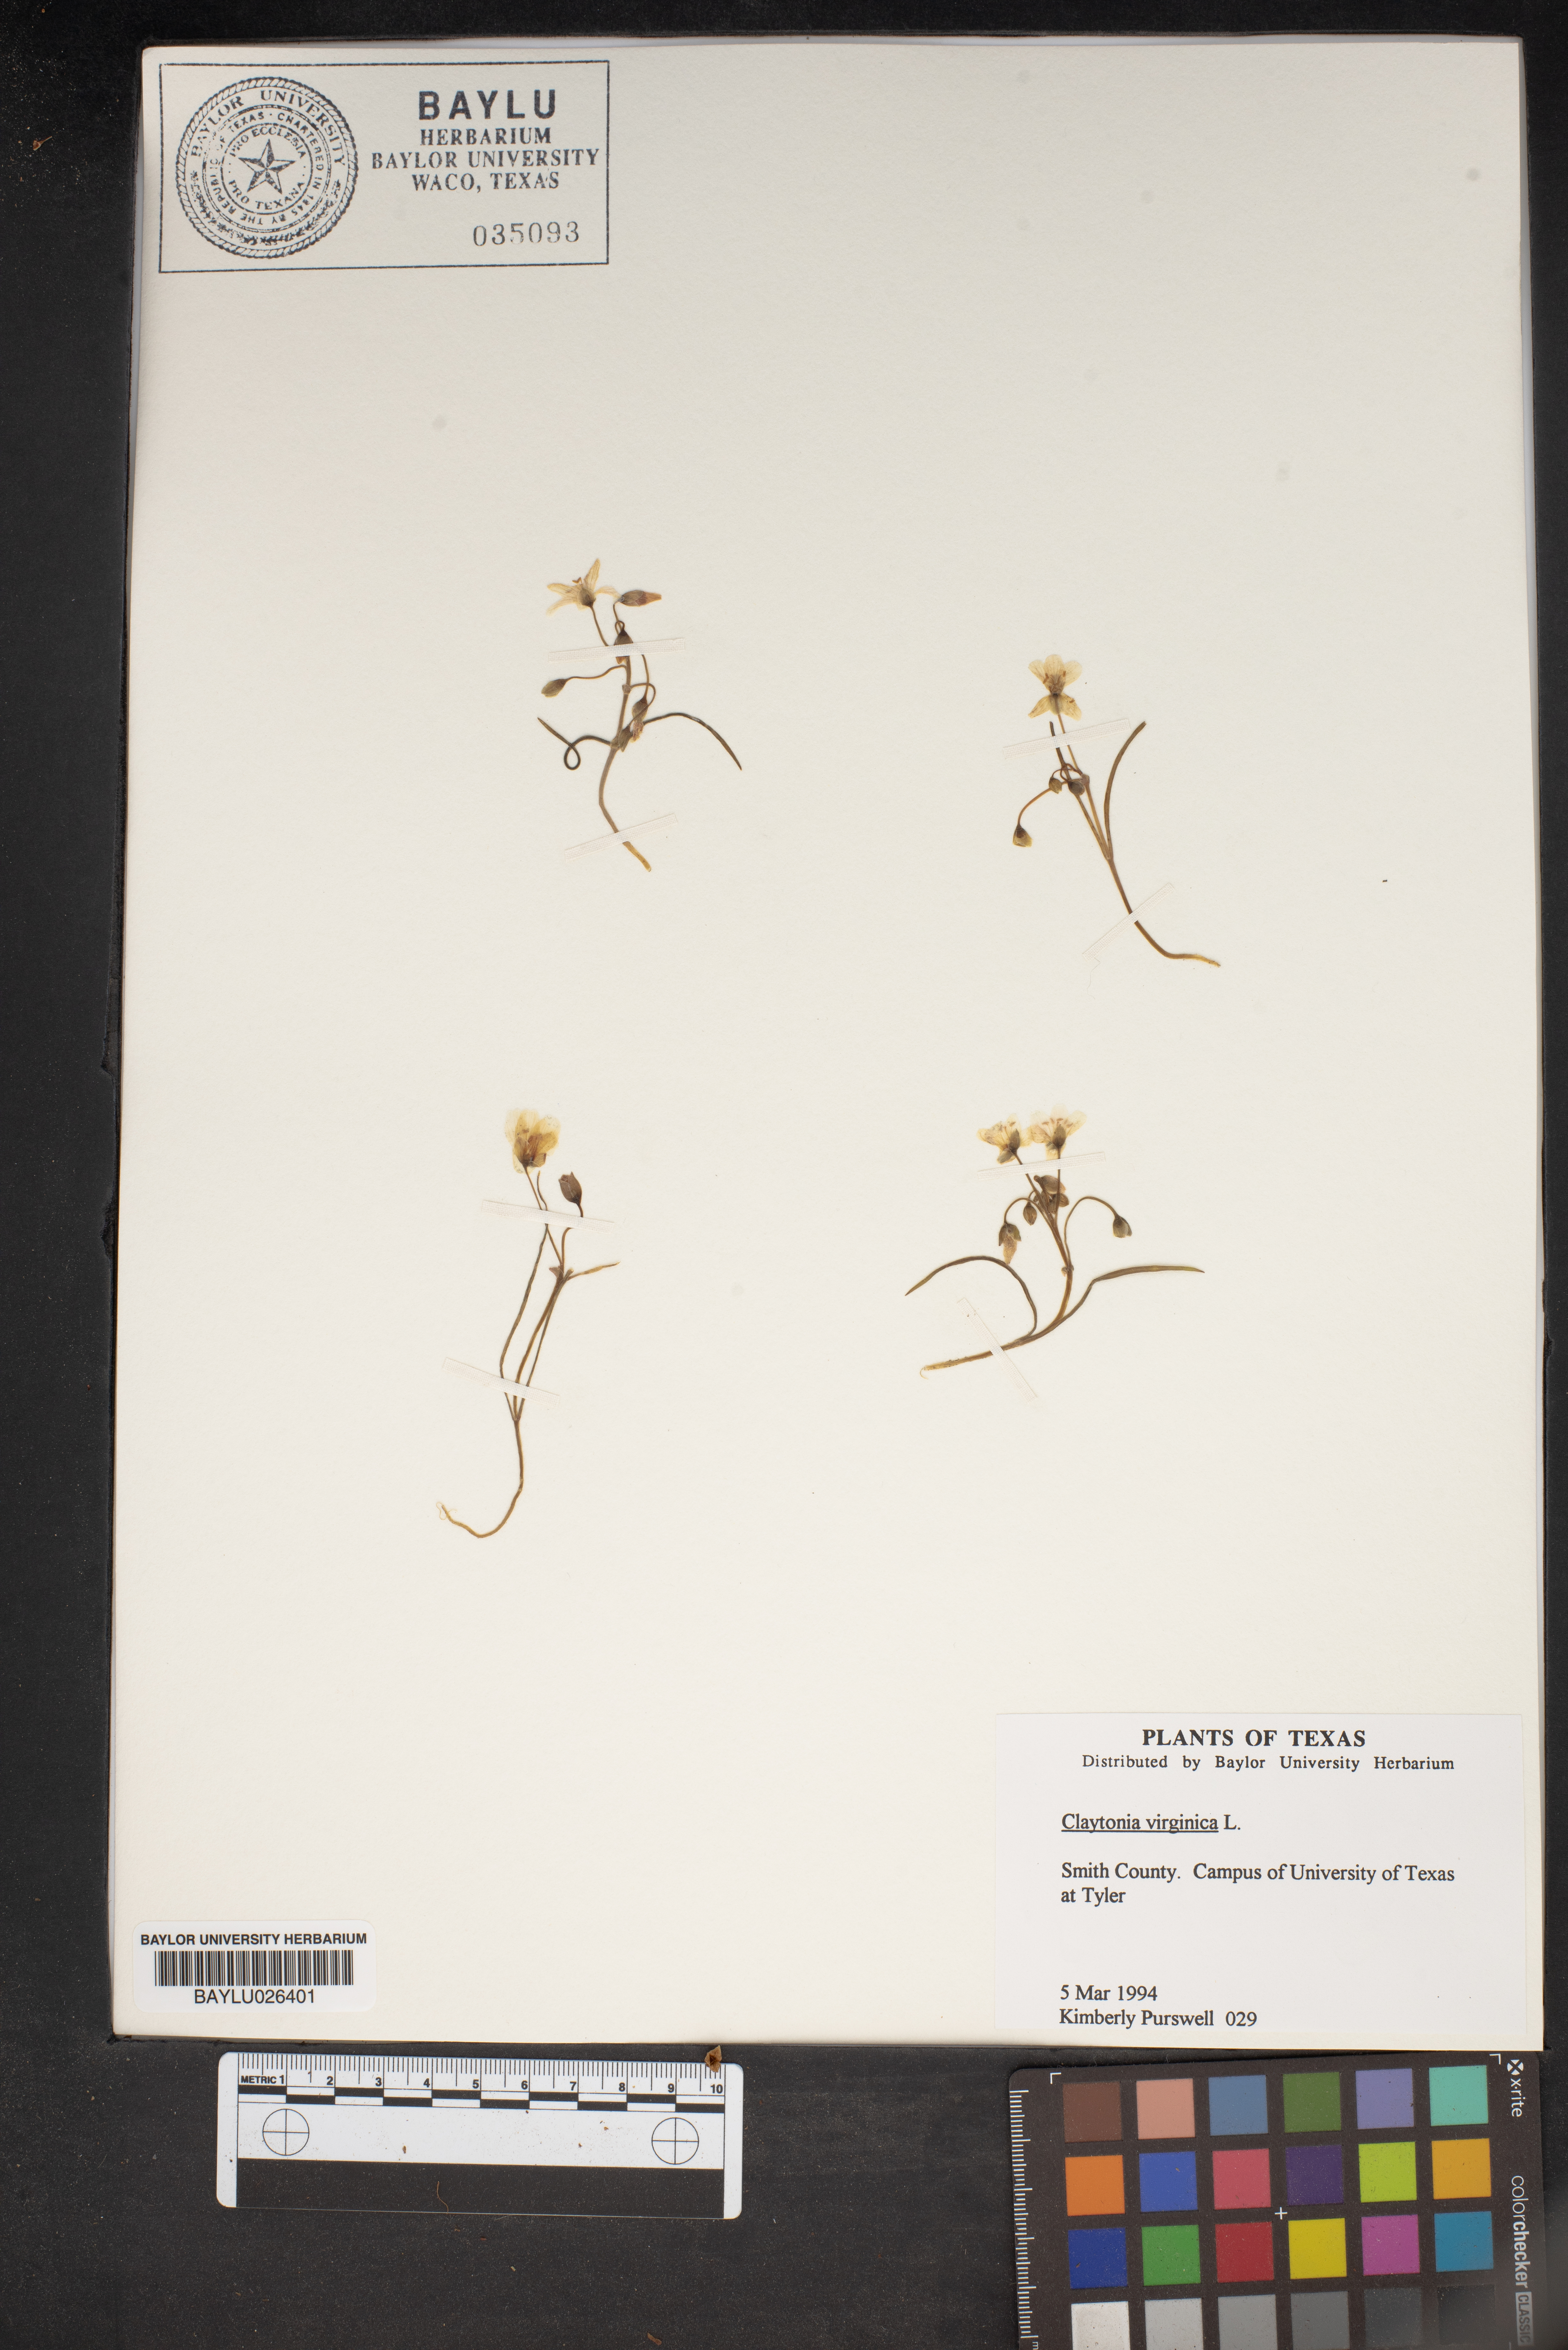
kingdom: Plantae
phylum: Tracheophyta
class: Magnoliopsida
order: Caryophyllales
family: Montiaceae
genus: Claytonia
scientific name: Claytonia virginica
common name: Virginia springbeauty
